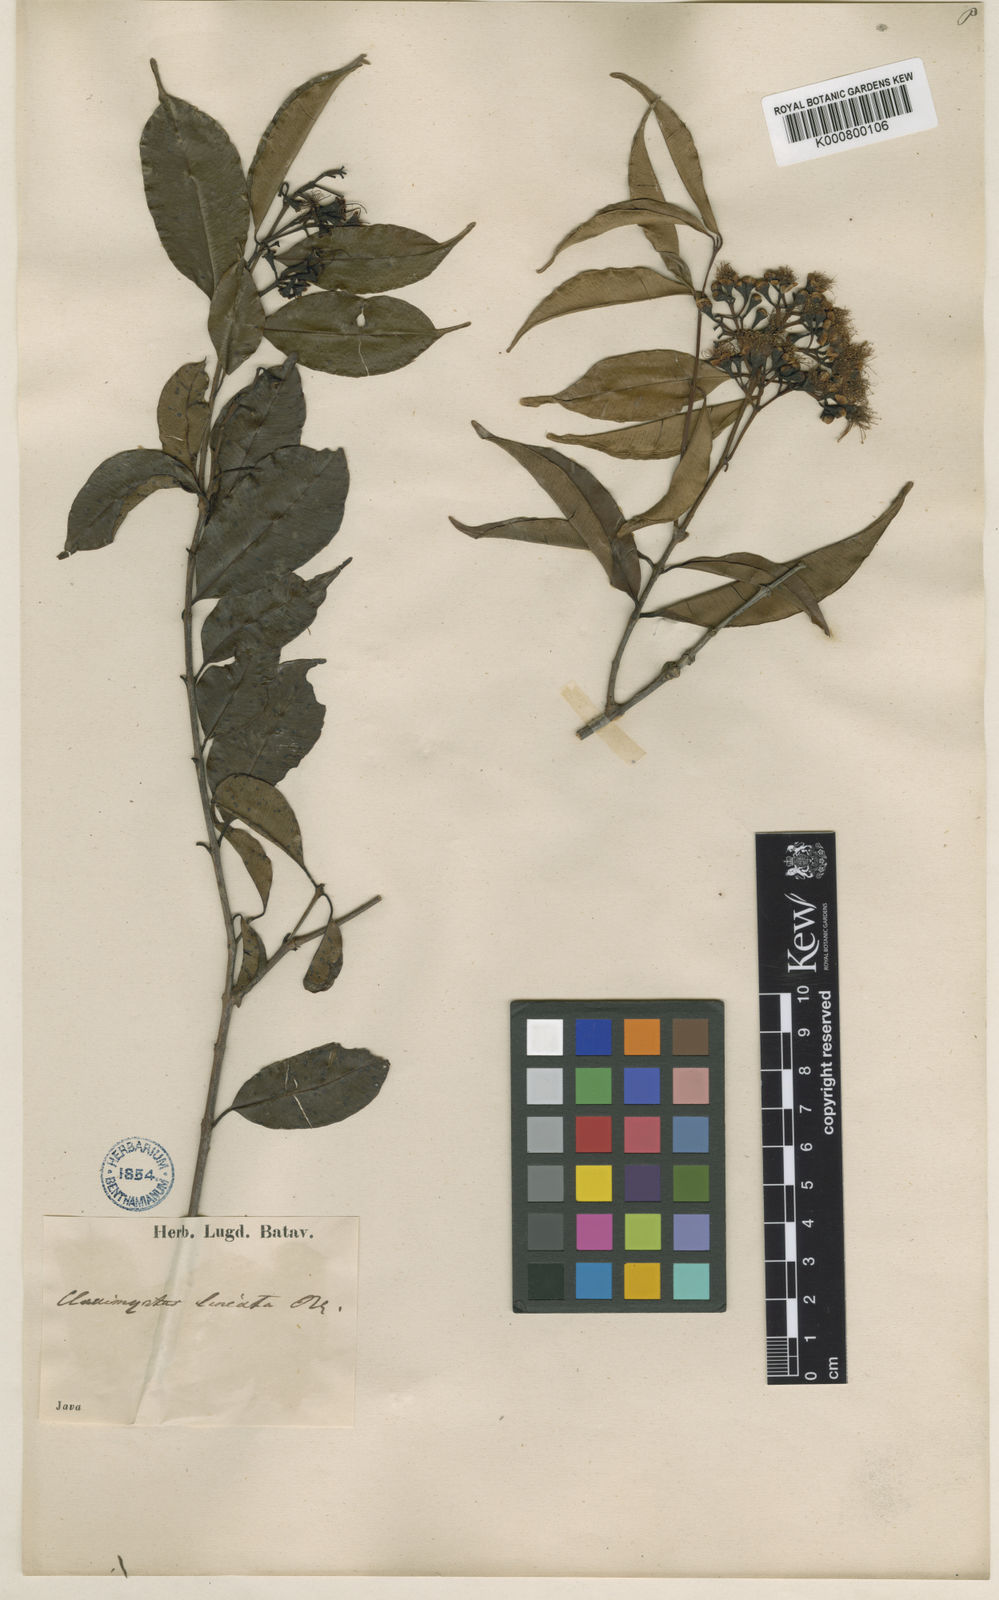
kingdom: Plantae
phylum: Tracheophyta
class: Magnoliopsida
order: Myrtales
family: Myrtaceae
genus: Syzygium
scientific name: Syzygium lineatum
